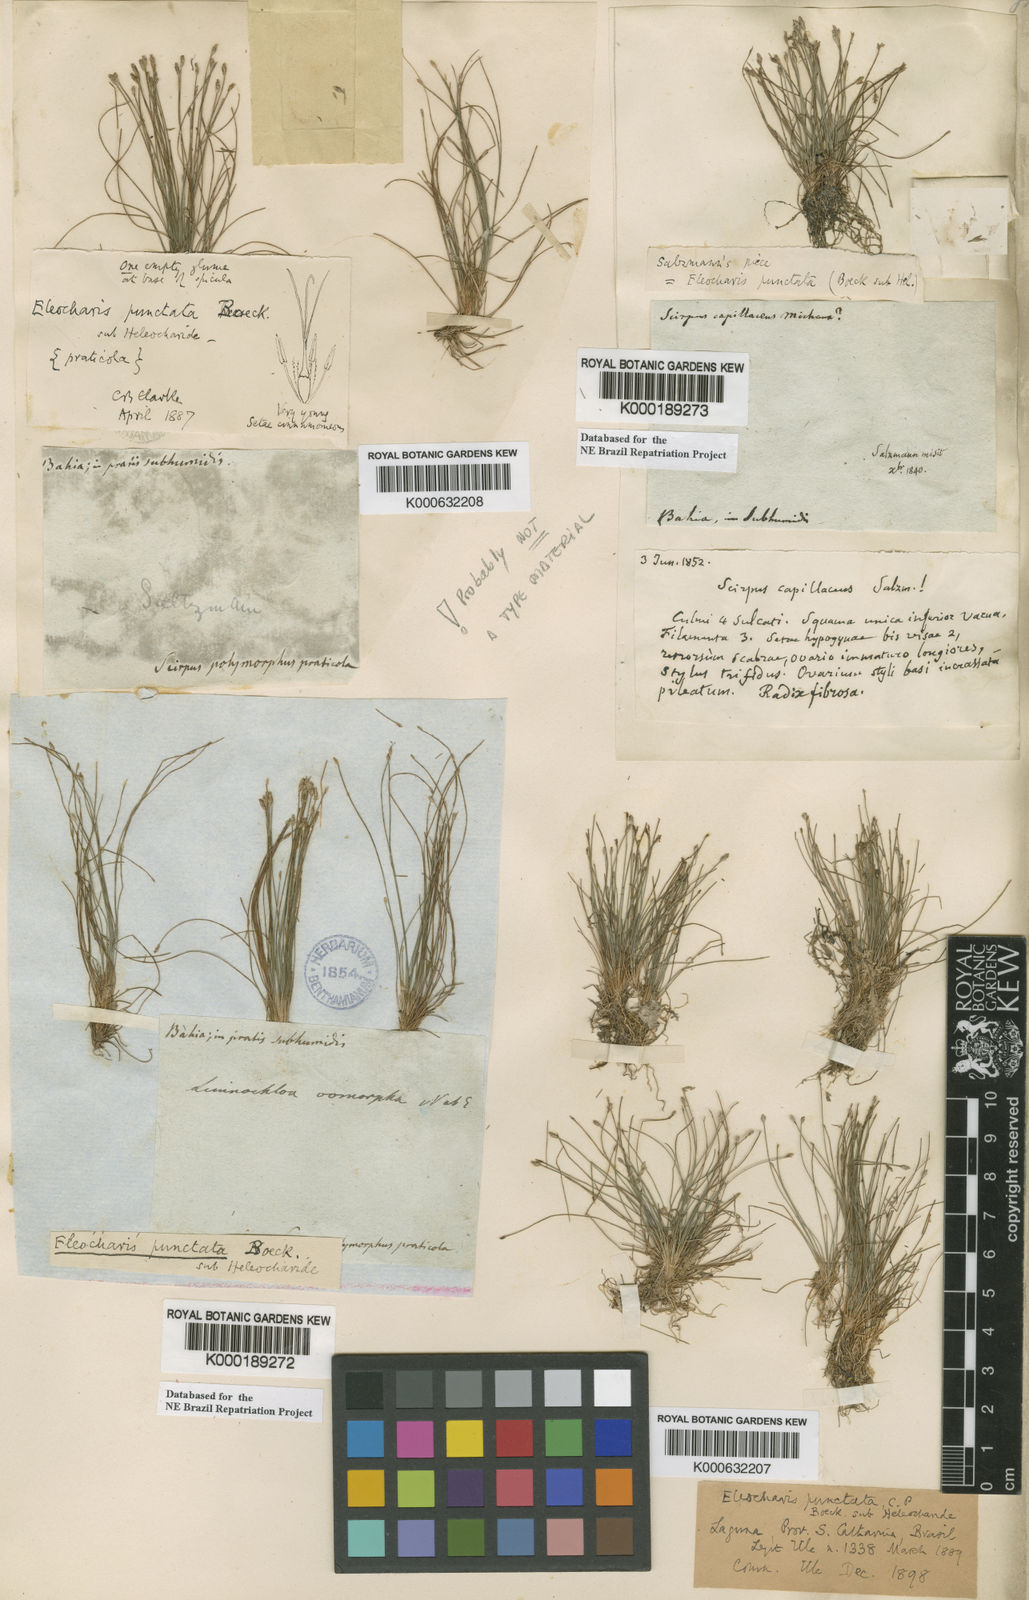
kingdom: Plantae
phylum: Tracheophyta
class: Liliopsida
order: Poales
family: Cyperaceae
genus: Eleocharis
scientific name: Eleocharis nana
